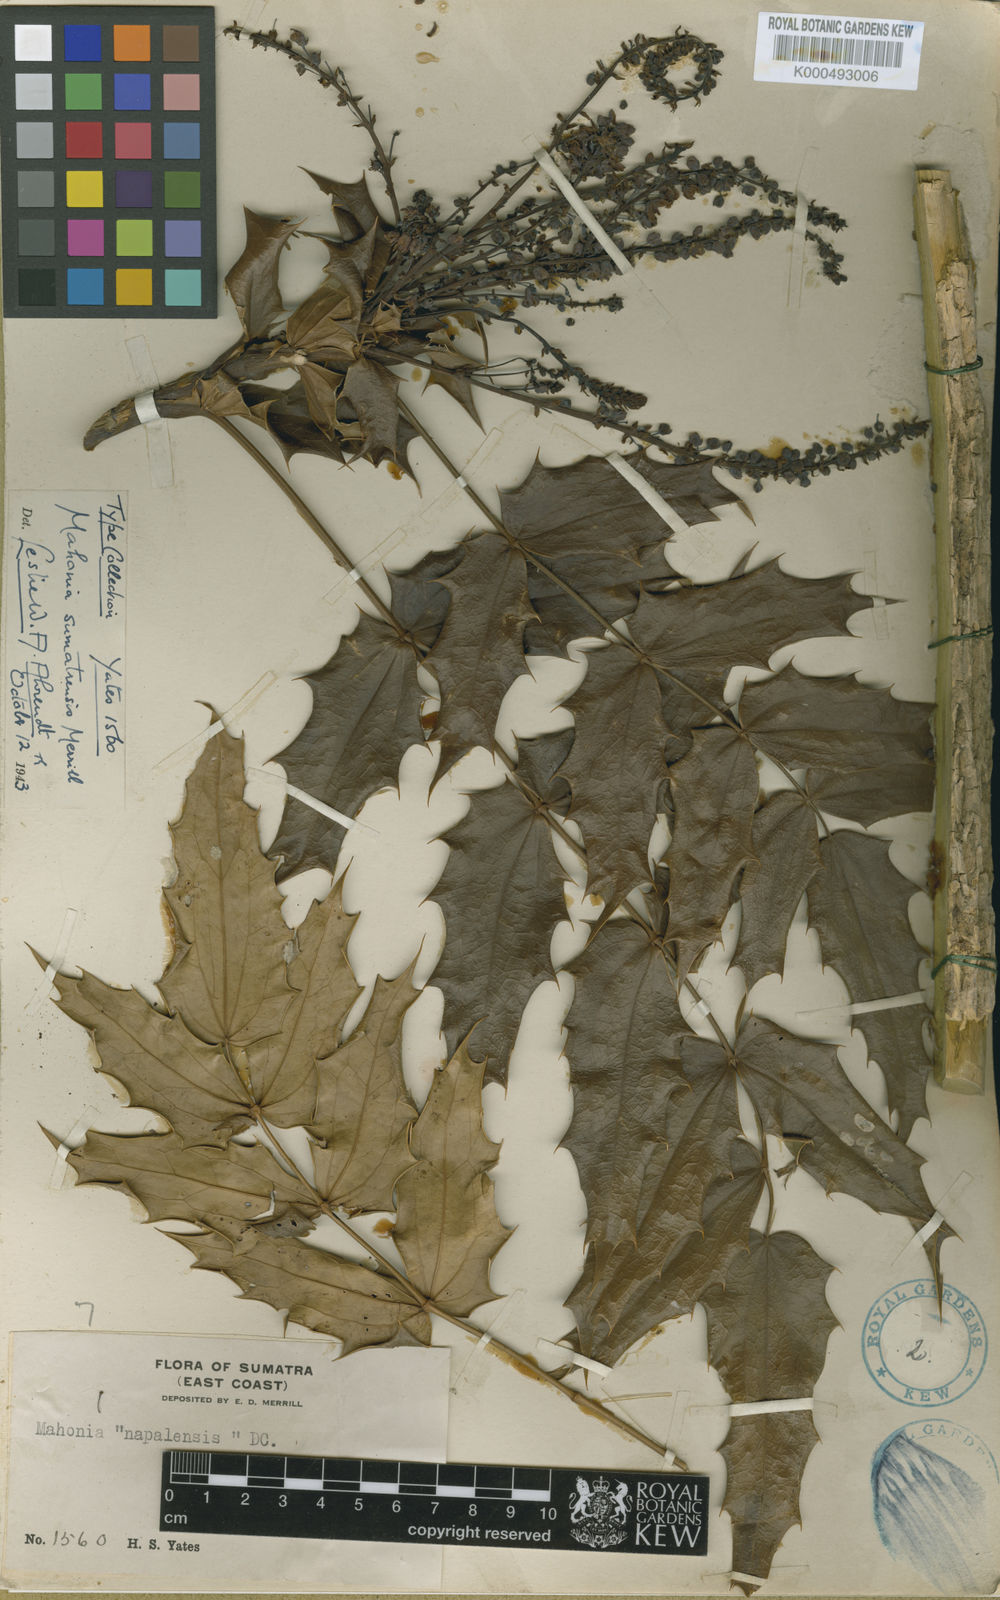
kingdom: Plantae
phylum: Tracheophyta
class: Magnoliopsida
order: Ranunculales
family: Berberidaceae
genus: Mahonia
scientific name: Mahonia sumatrensis
